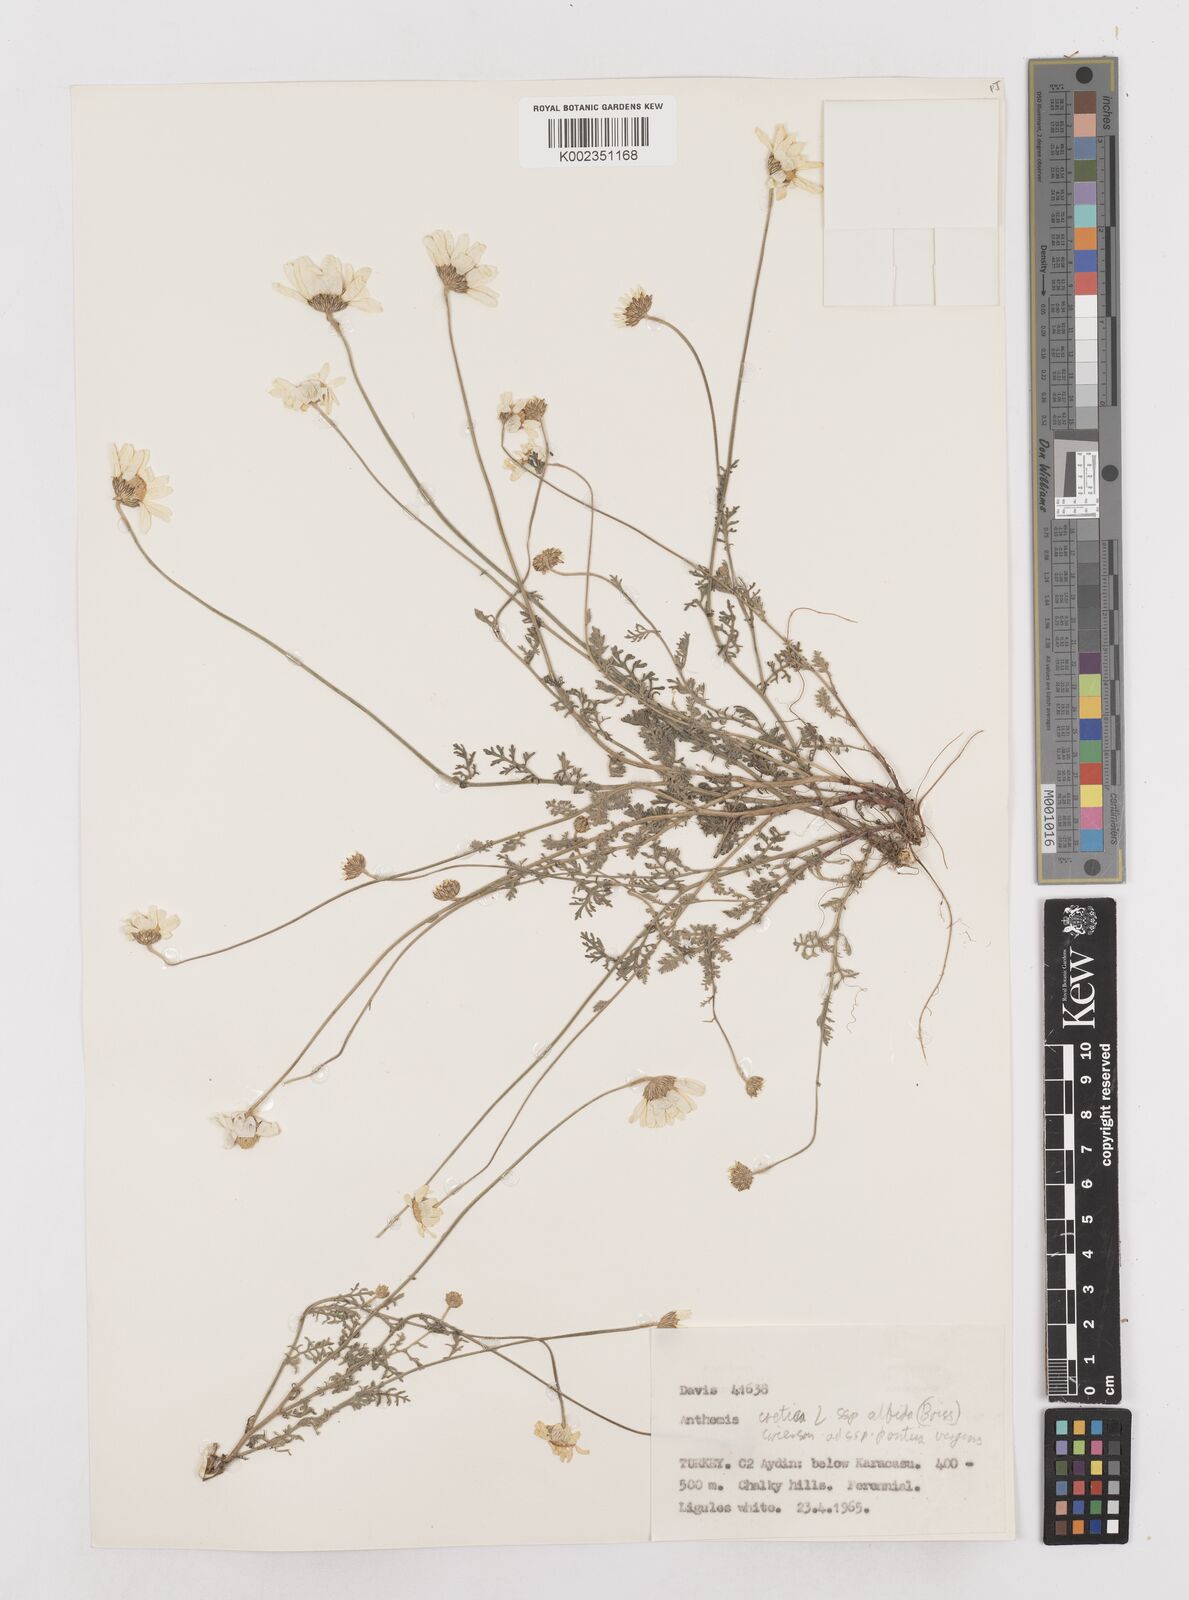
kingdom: Plantae
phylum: Tracheophyta
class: Magnoliopsida
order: Asterales
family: Asteraceae
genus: Anthemis
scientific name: Anthemis cretica
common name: Mountain dog-daisy
